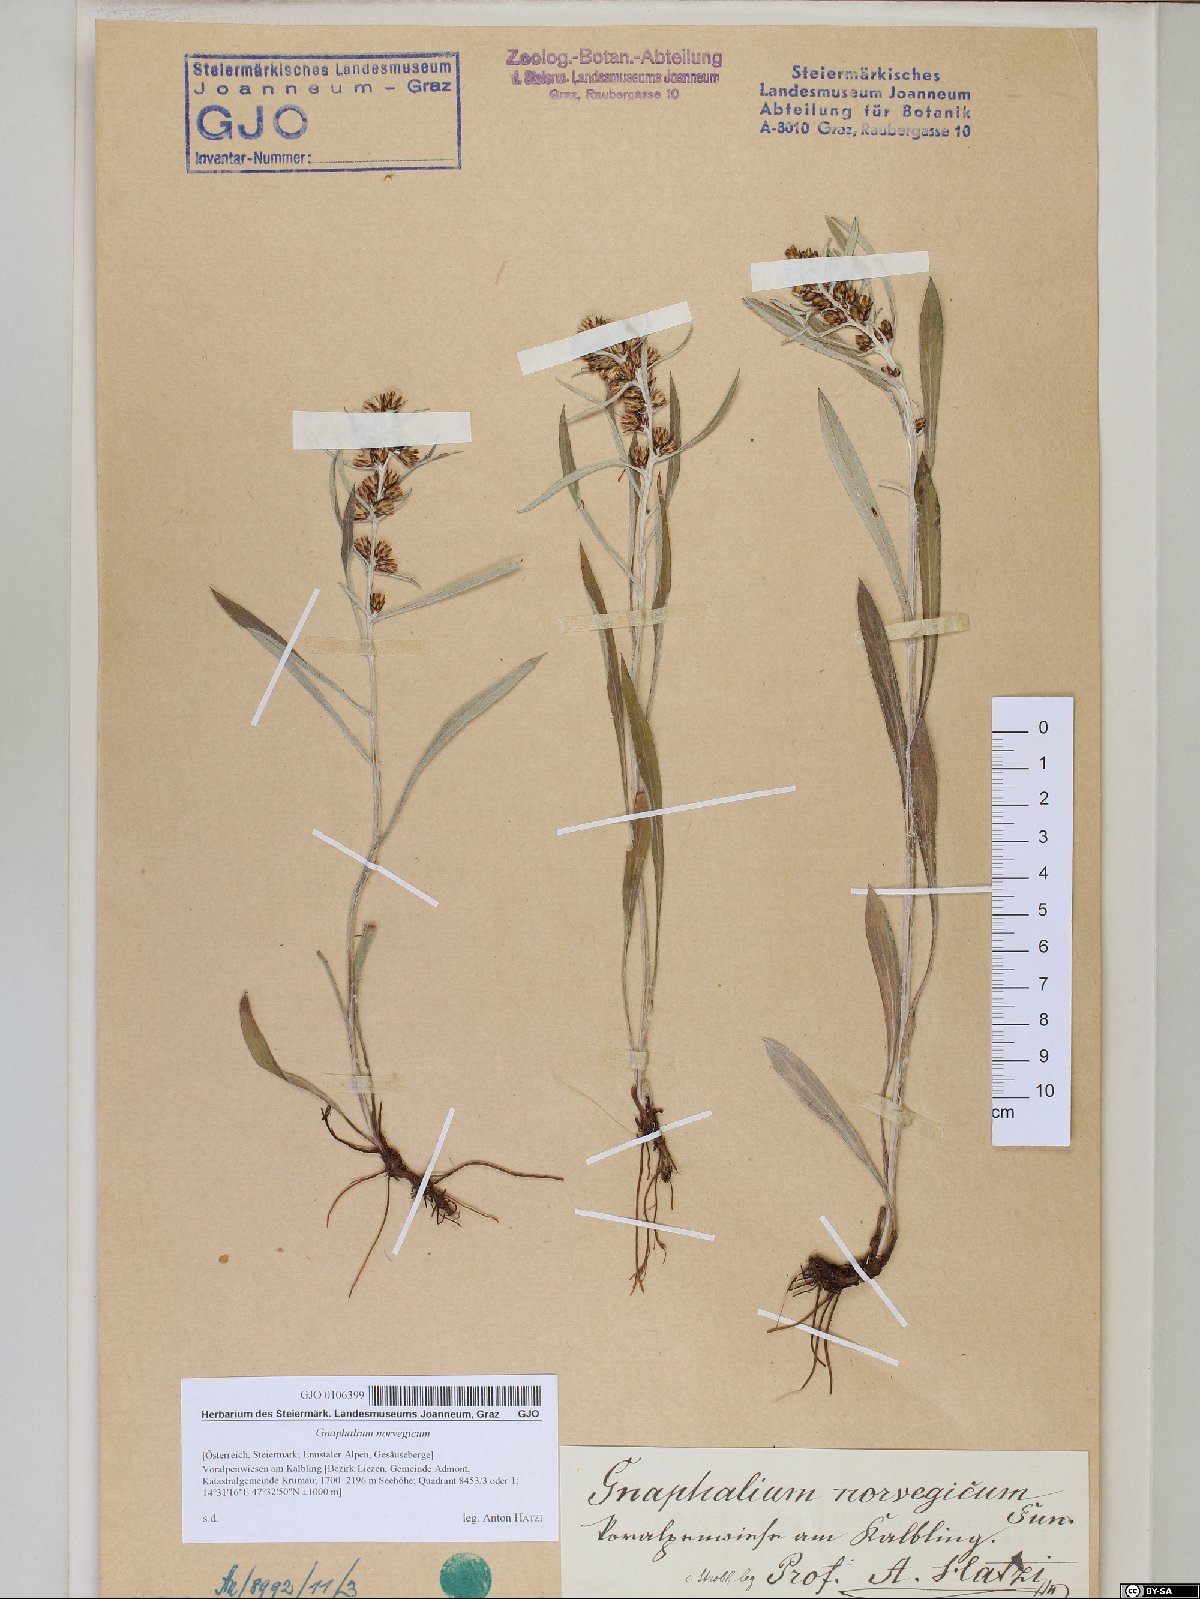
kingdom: Plantae
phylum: Tracheophyta
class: Magnoliopsida
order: Asterales
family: Asteraceae
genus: Omalotheca
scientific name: Omalotheca norvegica
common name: Norwegian arctic-cudweed
